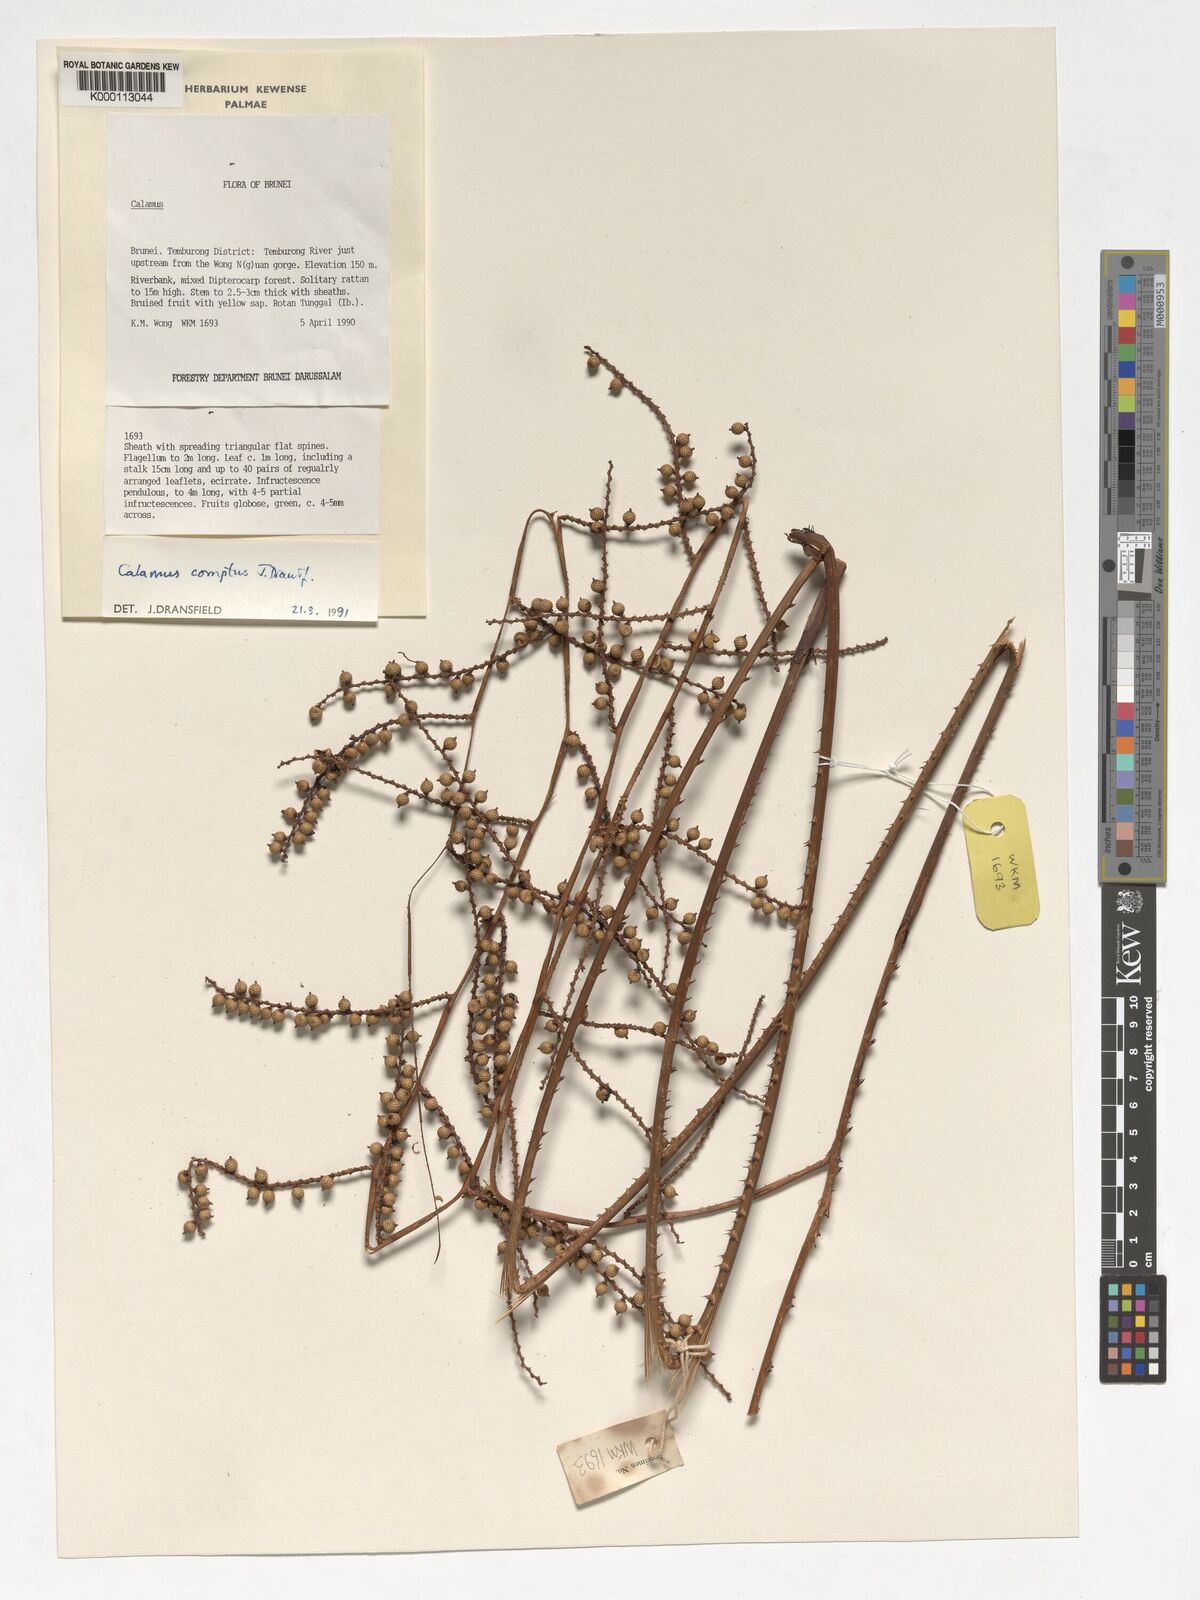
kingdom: Plantae
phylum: Tracheophyta
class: Liliopsida
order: Arecales
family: Arecaceae
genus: Calamus
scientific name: Calamus comptus
